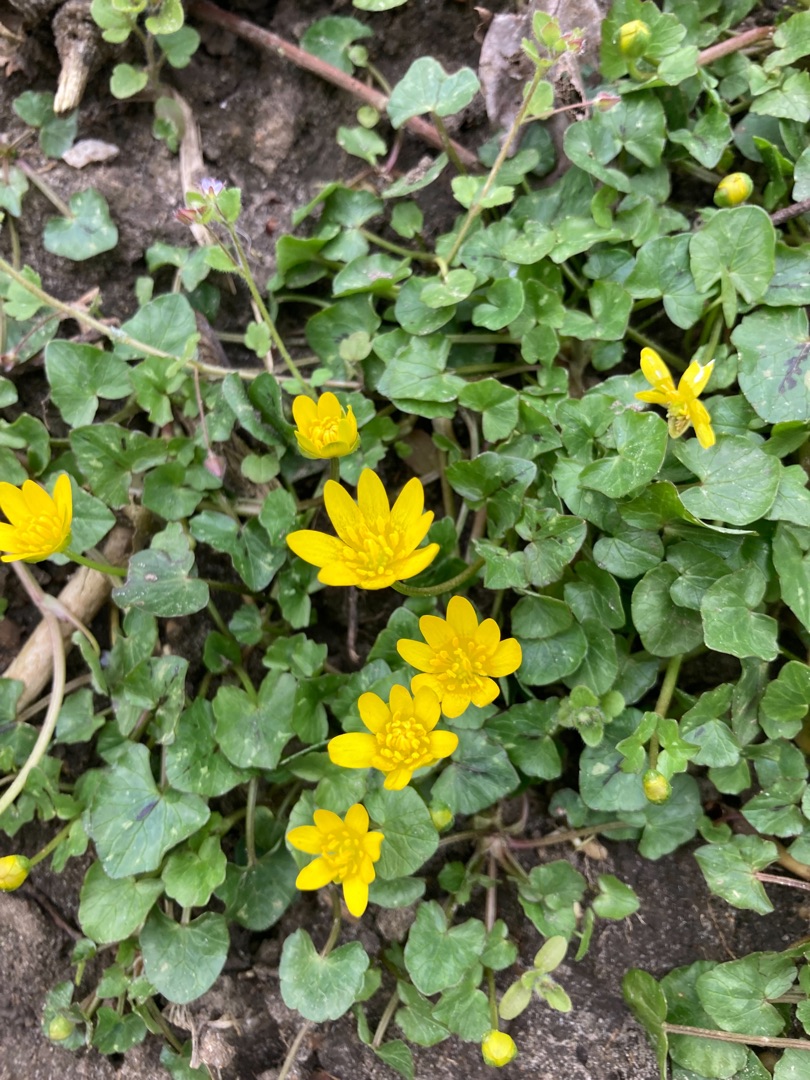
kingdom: Plantae
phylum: Tracheophyta
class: Magnoliopsida
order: Ranunculales
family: Ranunculaceae
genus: Ficaria
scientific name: Ficaria verna
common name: Vorterod
